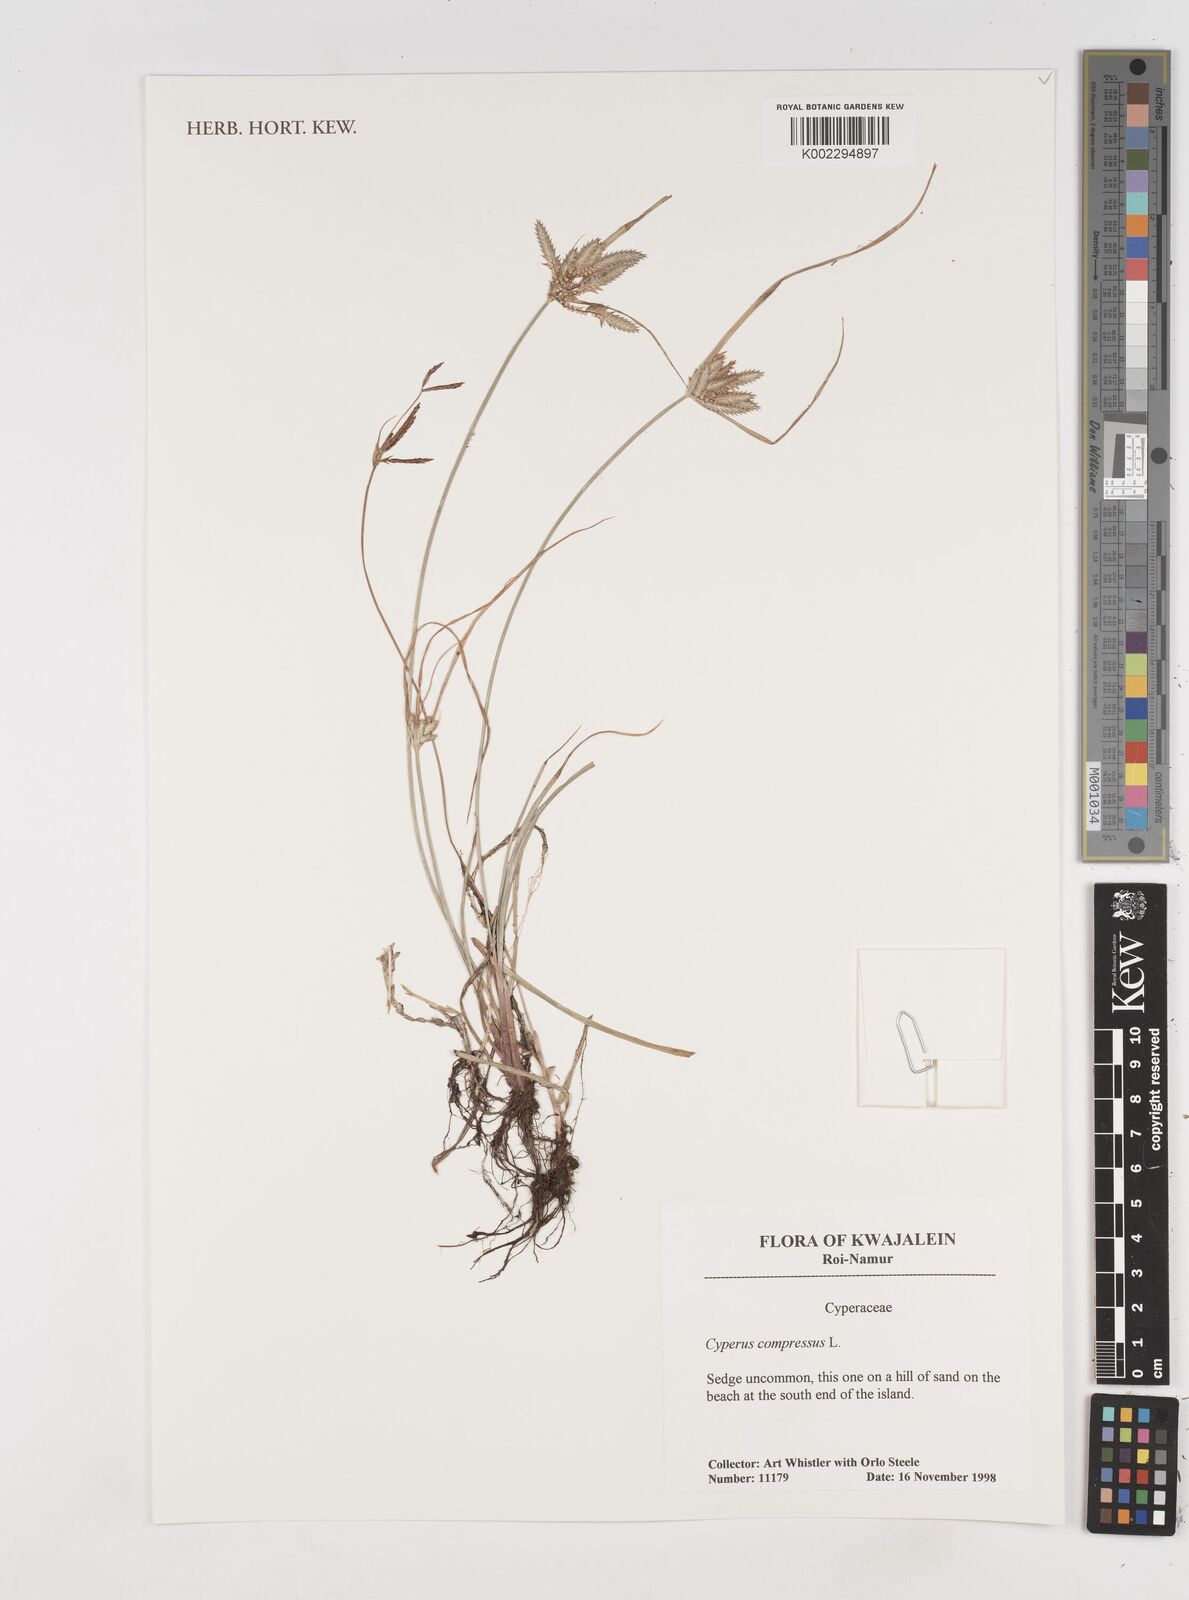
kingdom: Plantae
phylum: Tracheophyta
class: Liliopsida
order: Poales
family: Cyperaceae
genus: Cyperus
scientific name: Cyperus compressus
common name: Poorland flatsedge
